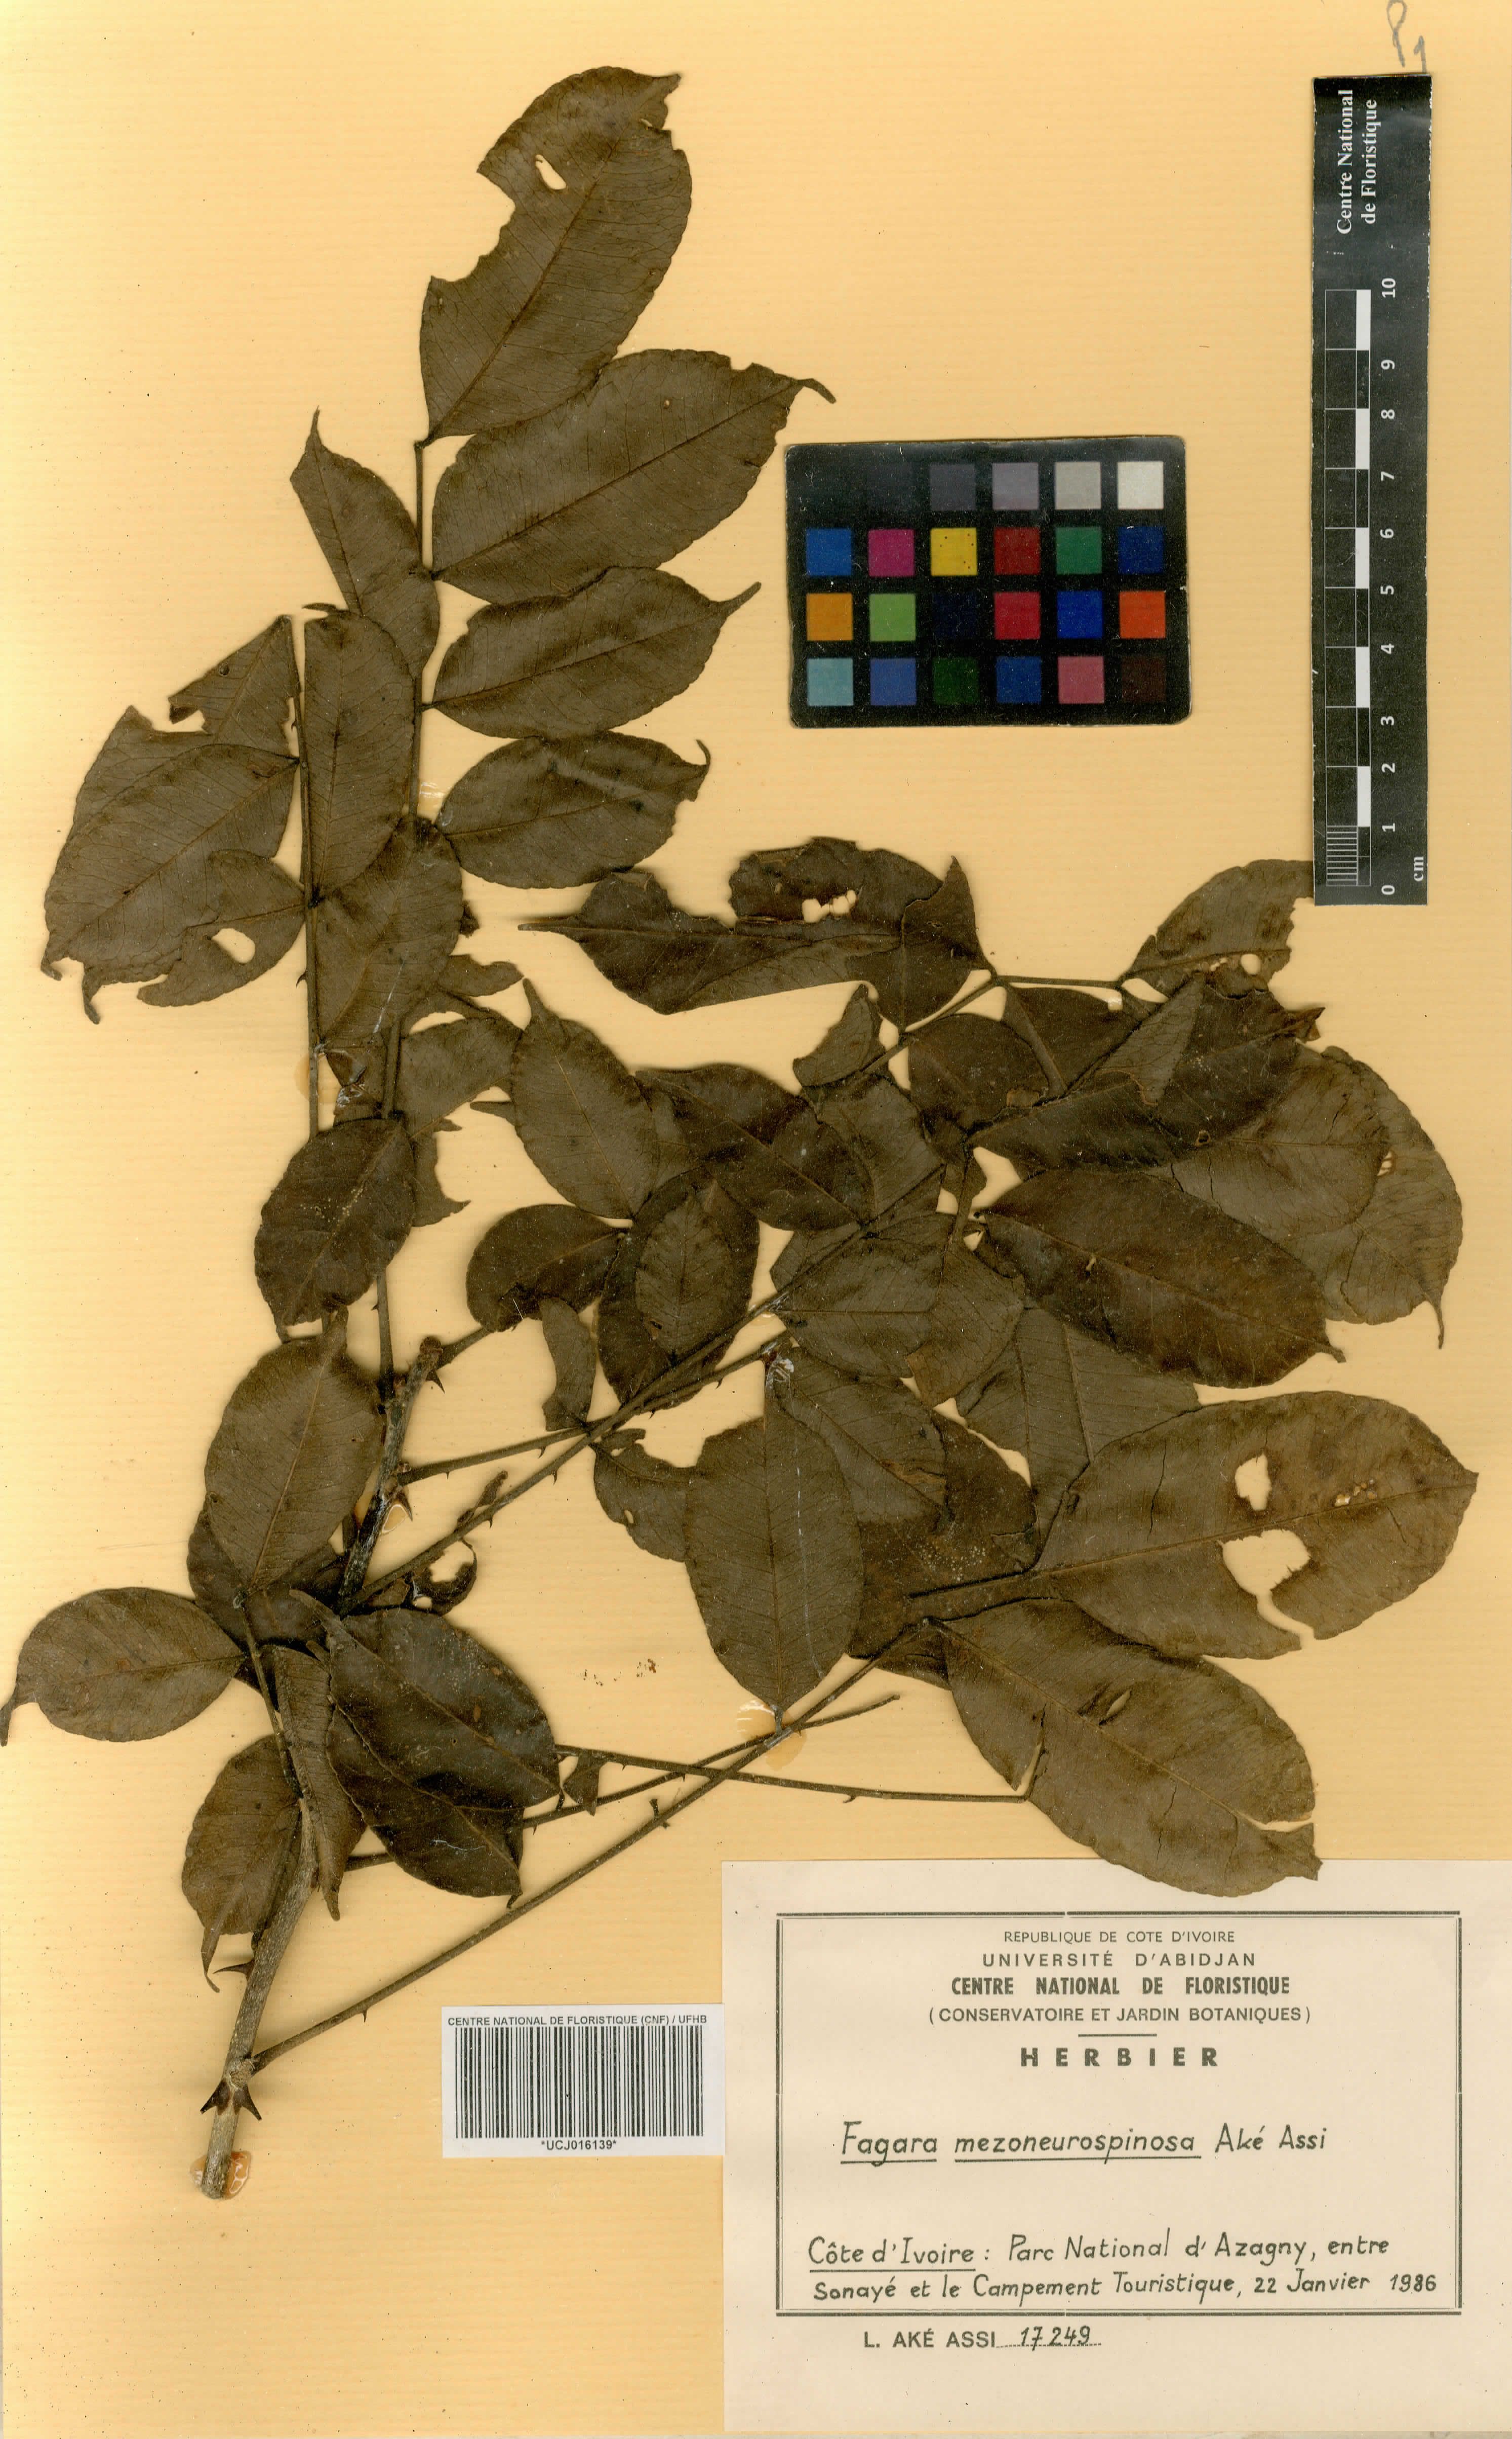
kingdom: Plantae
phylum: Tracheophyta
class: Magnoliopsida
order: Sapindales
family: Rutaceae
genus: Zanthoxylum
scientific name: Zanthoxylum mezoneurispinosum
